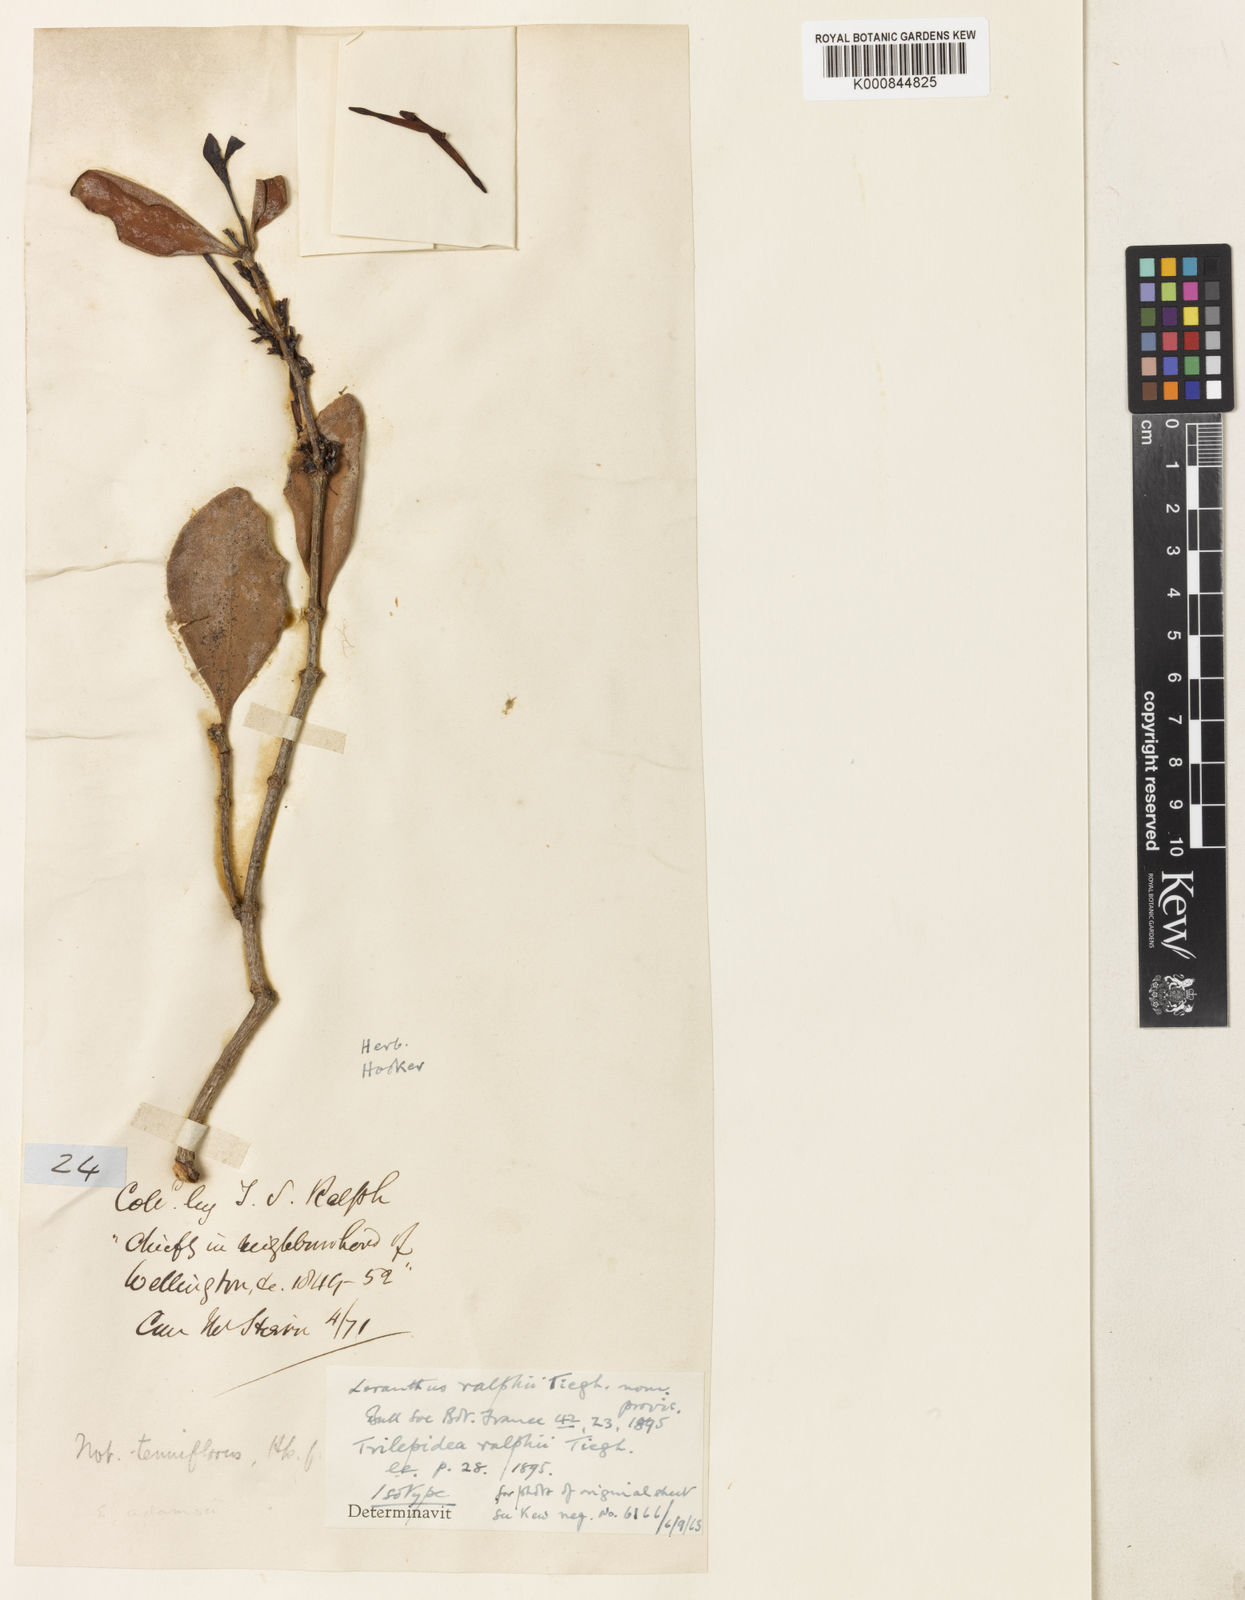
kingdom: Plantae
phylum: Tracheophyta
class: Magnoliopsida
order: Santalales
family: Loranthaceae
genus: Trilepidea
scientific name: Trilepidea adamsii
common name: Adams mistletoe
